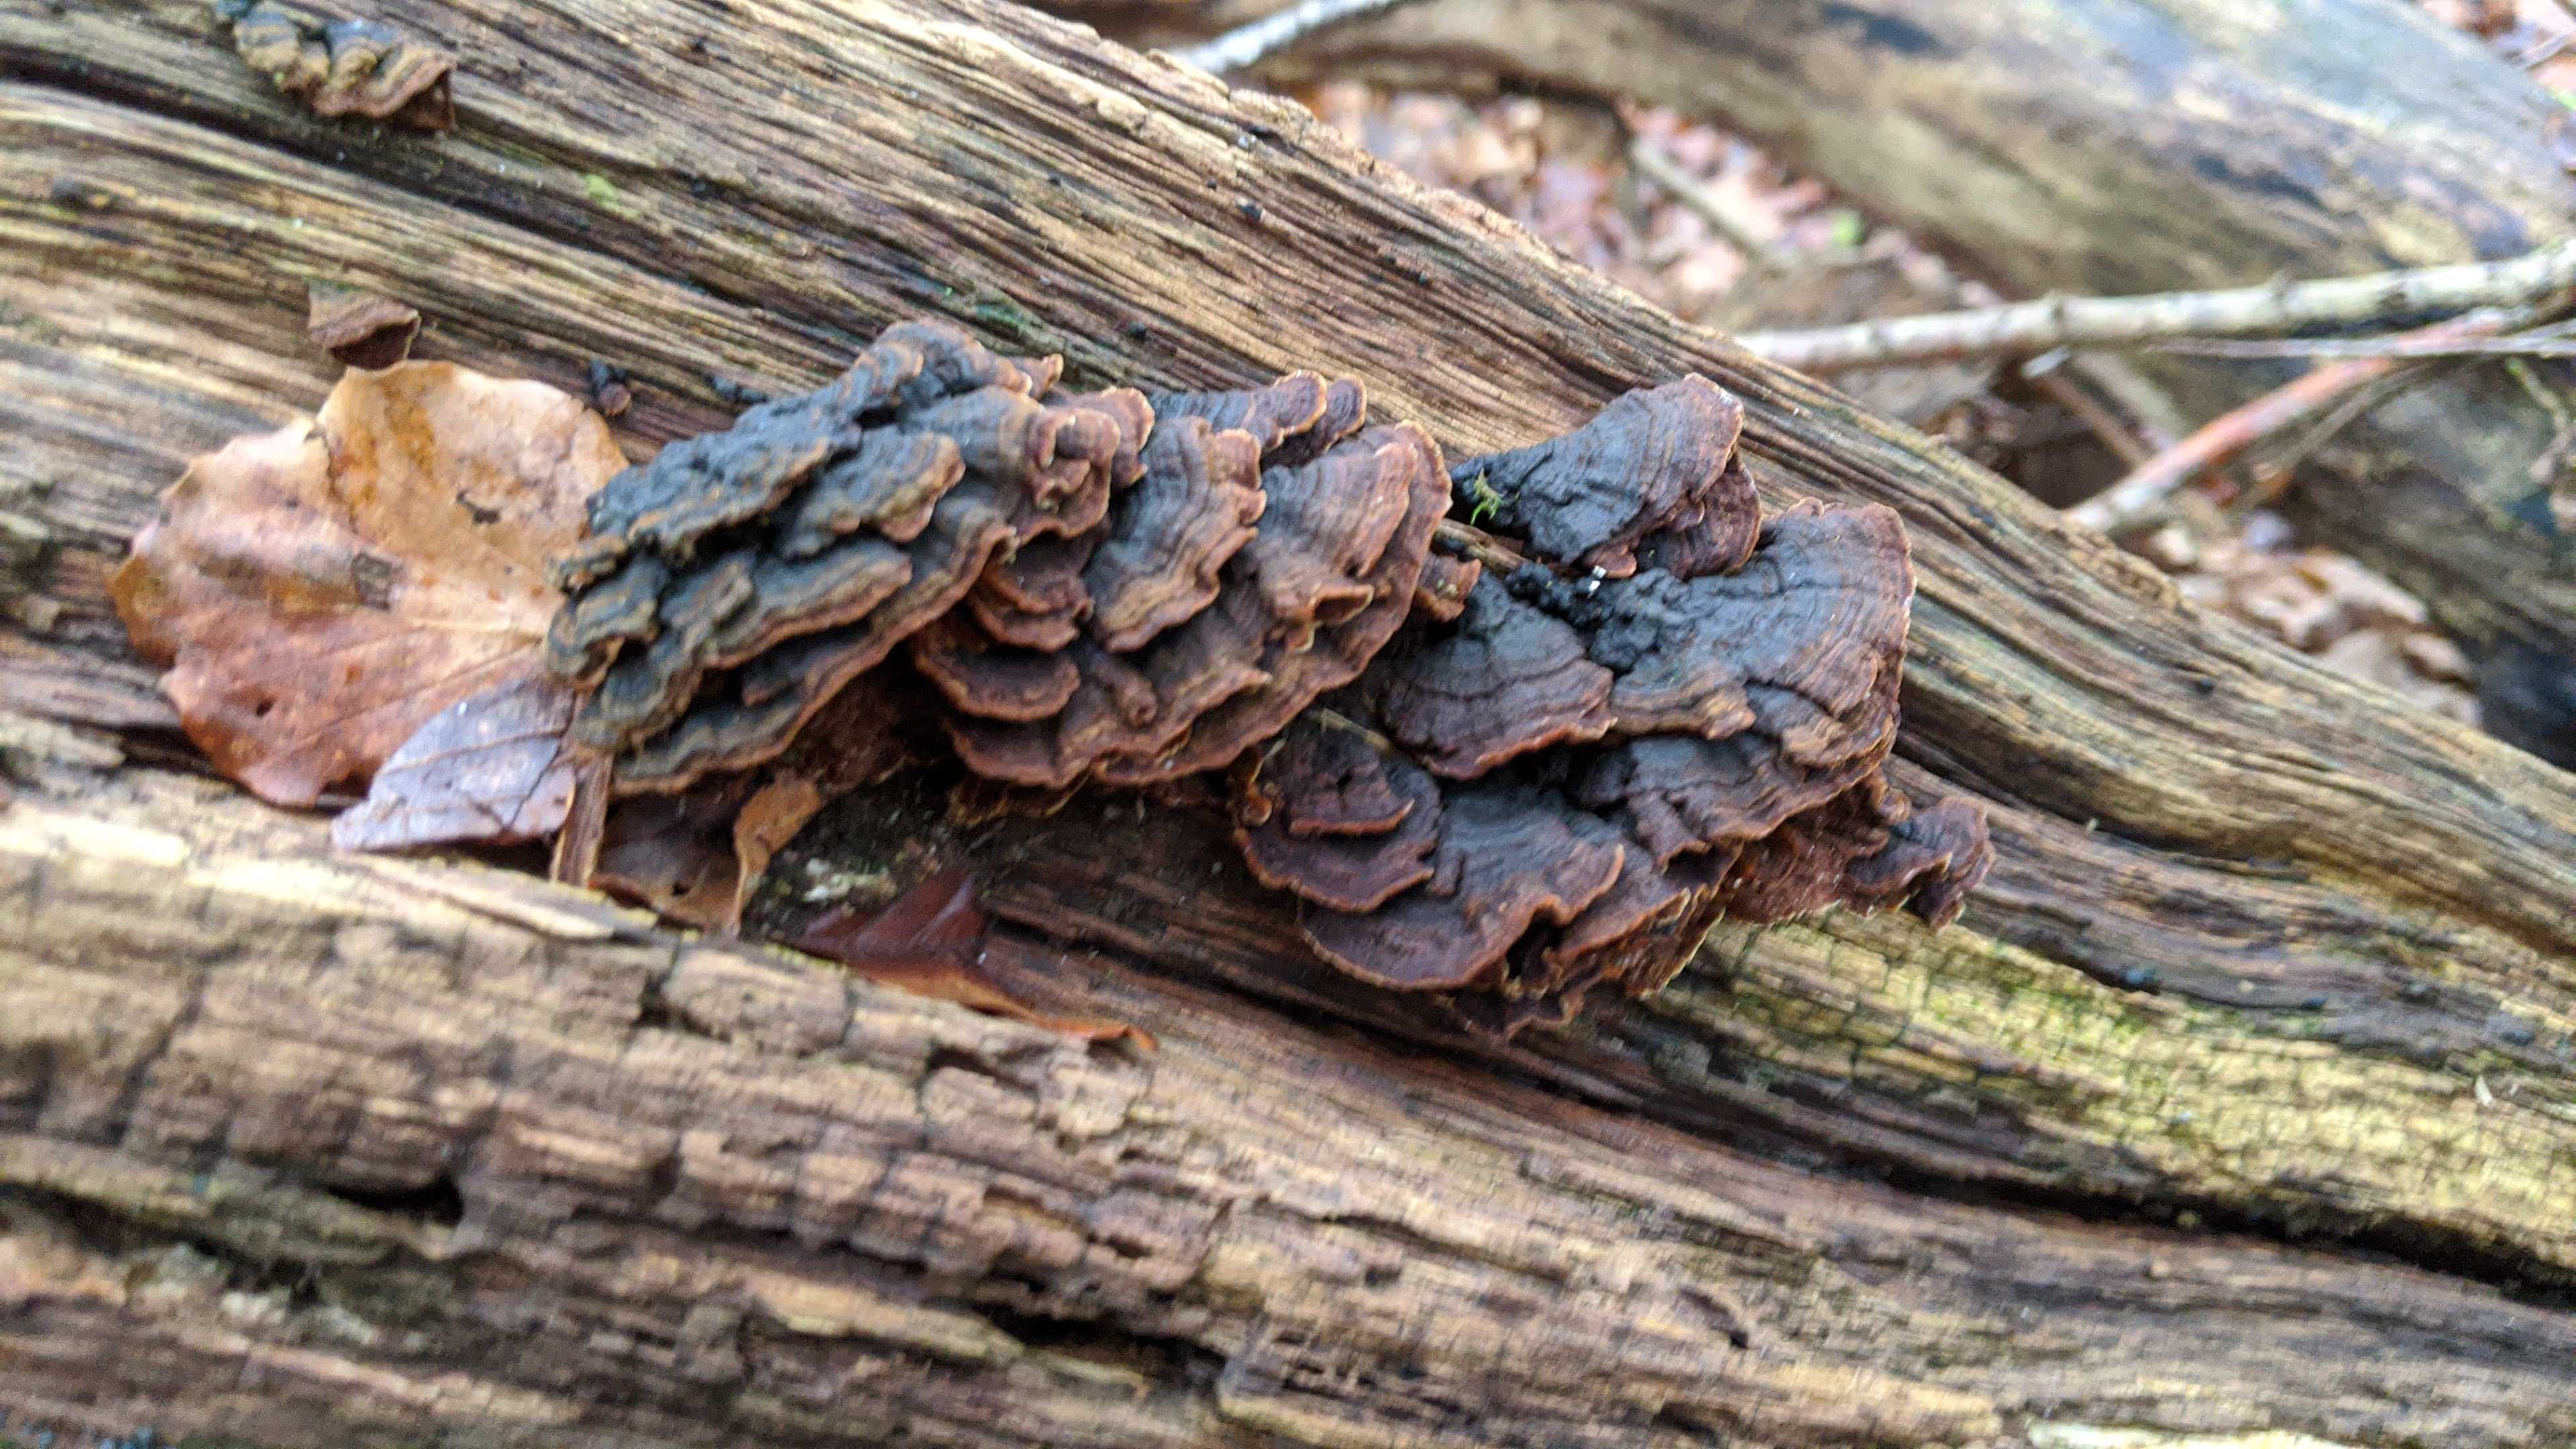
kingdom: Fungi
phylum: Basidiomycota
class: Agaricomycetes
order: Hymenochaetales
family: Hymenochaetaceae
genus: Hymenochaete
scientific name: Hymenochaete rubiginosa
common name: stiv ruslædersvamp
